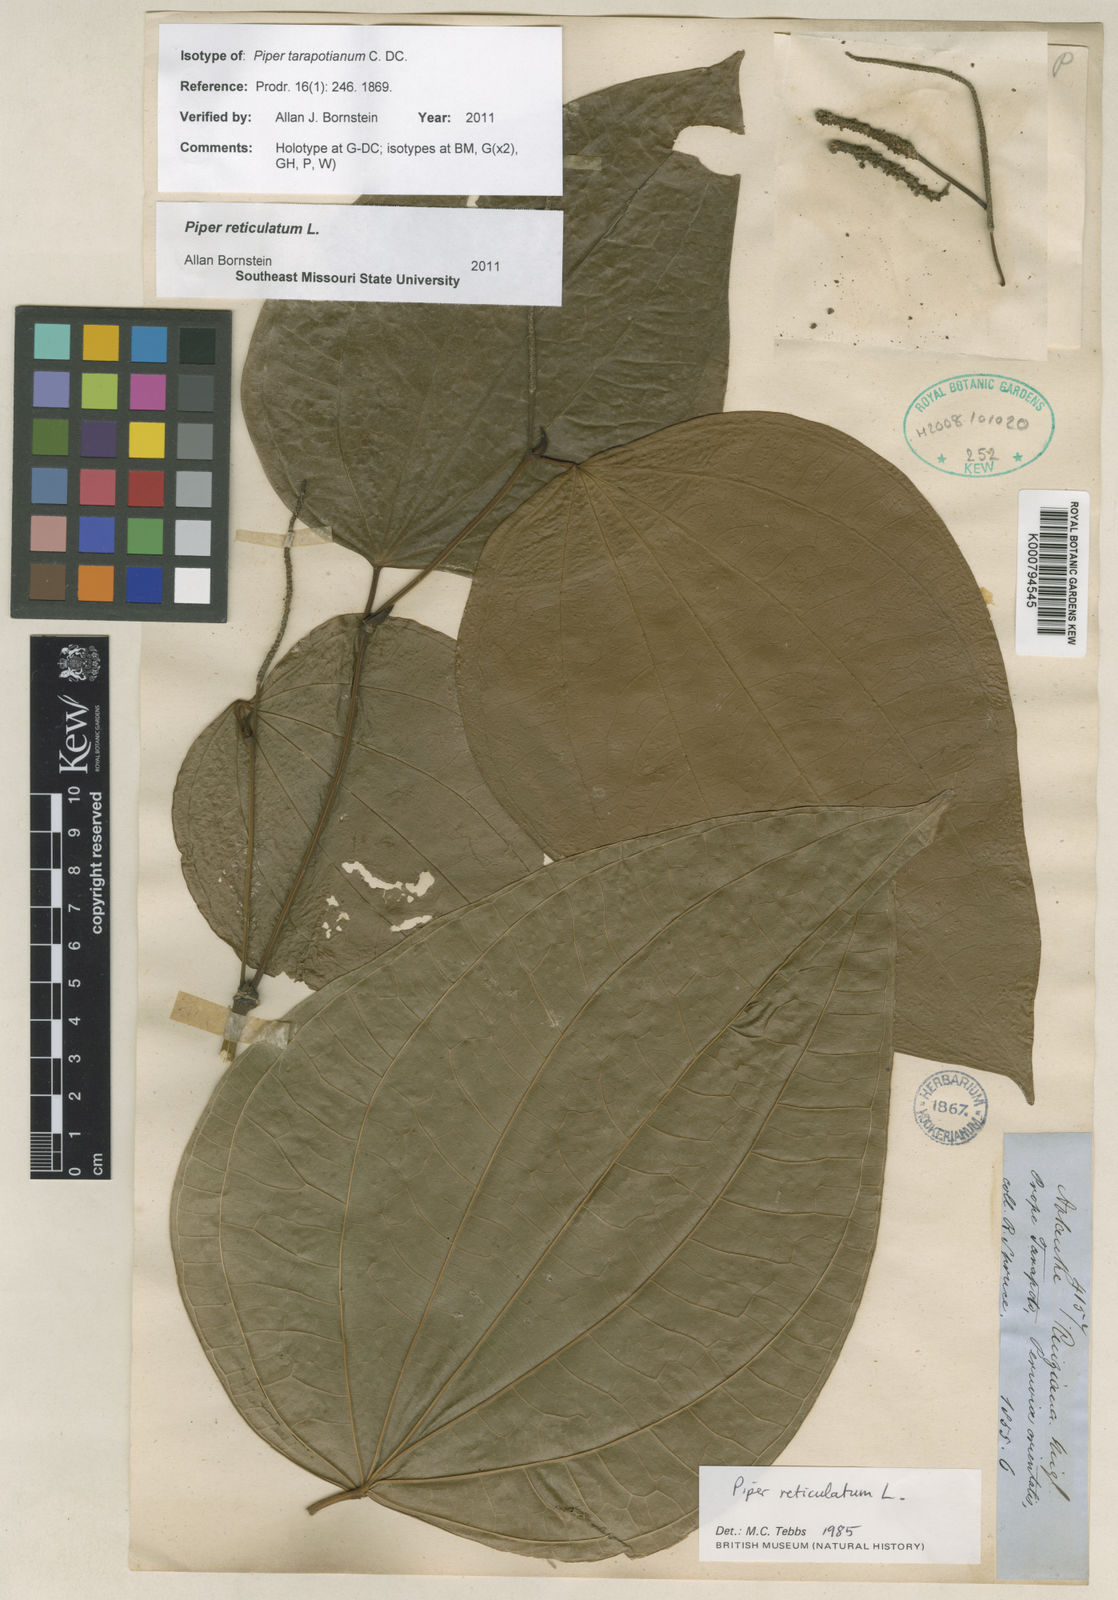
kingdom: Plantae
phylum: Tracheophyta
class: Magnoliopsida
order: Piperales
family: Piperaceae
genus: Piper
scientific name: Piper reticulatum
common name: Wild cane
